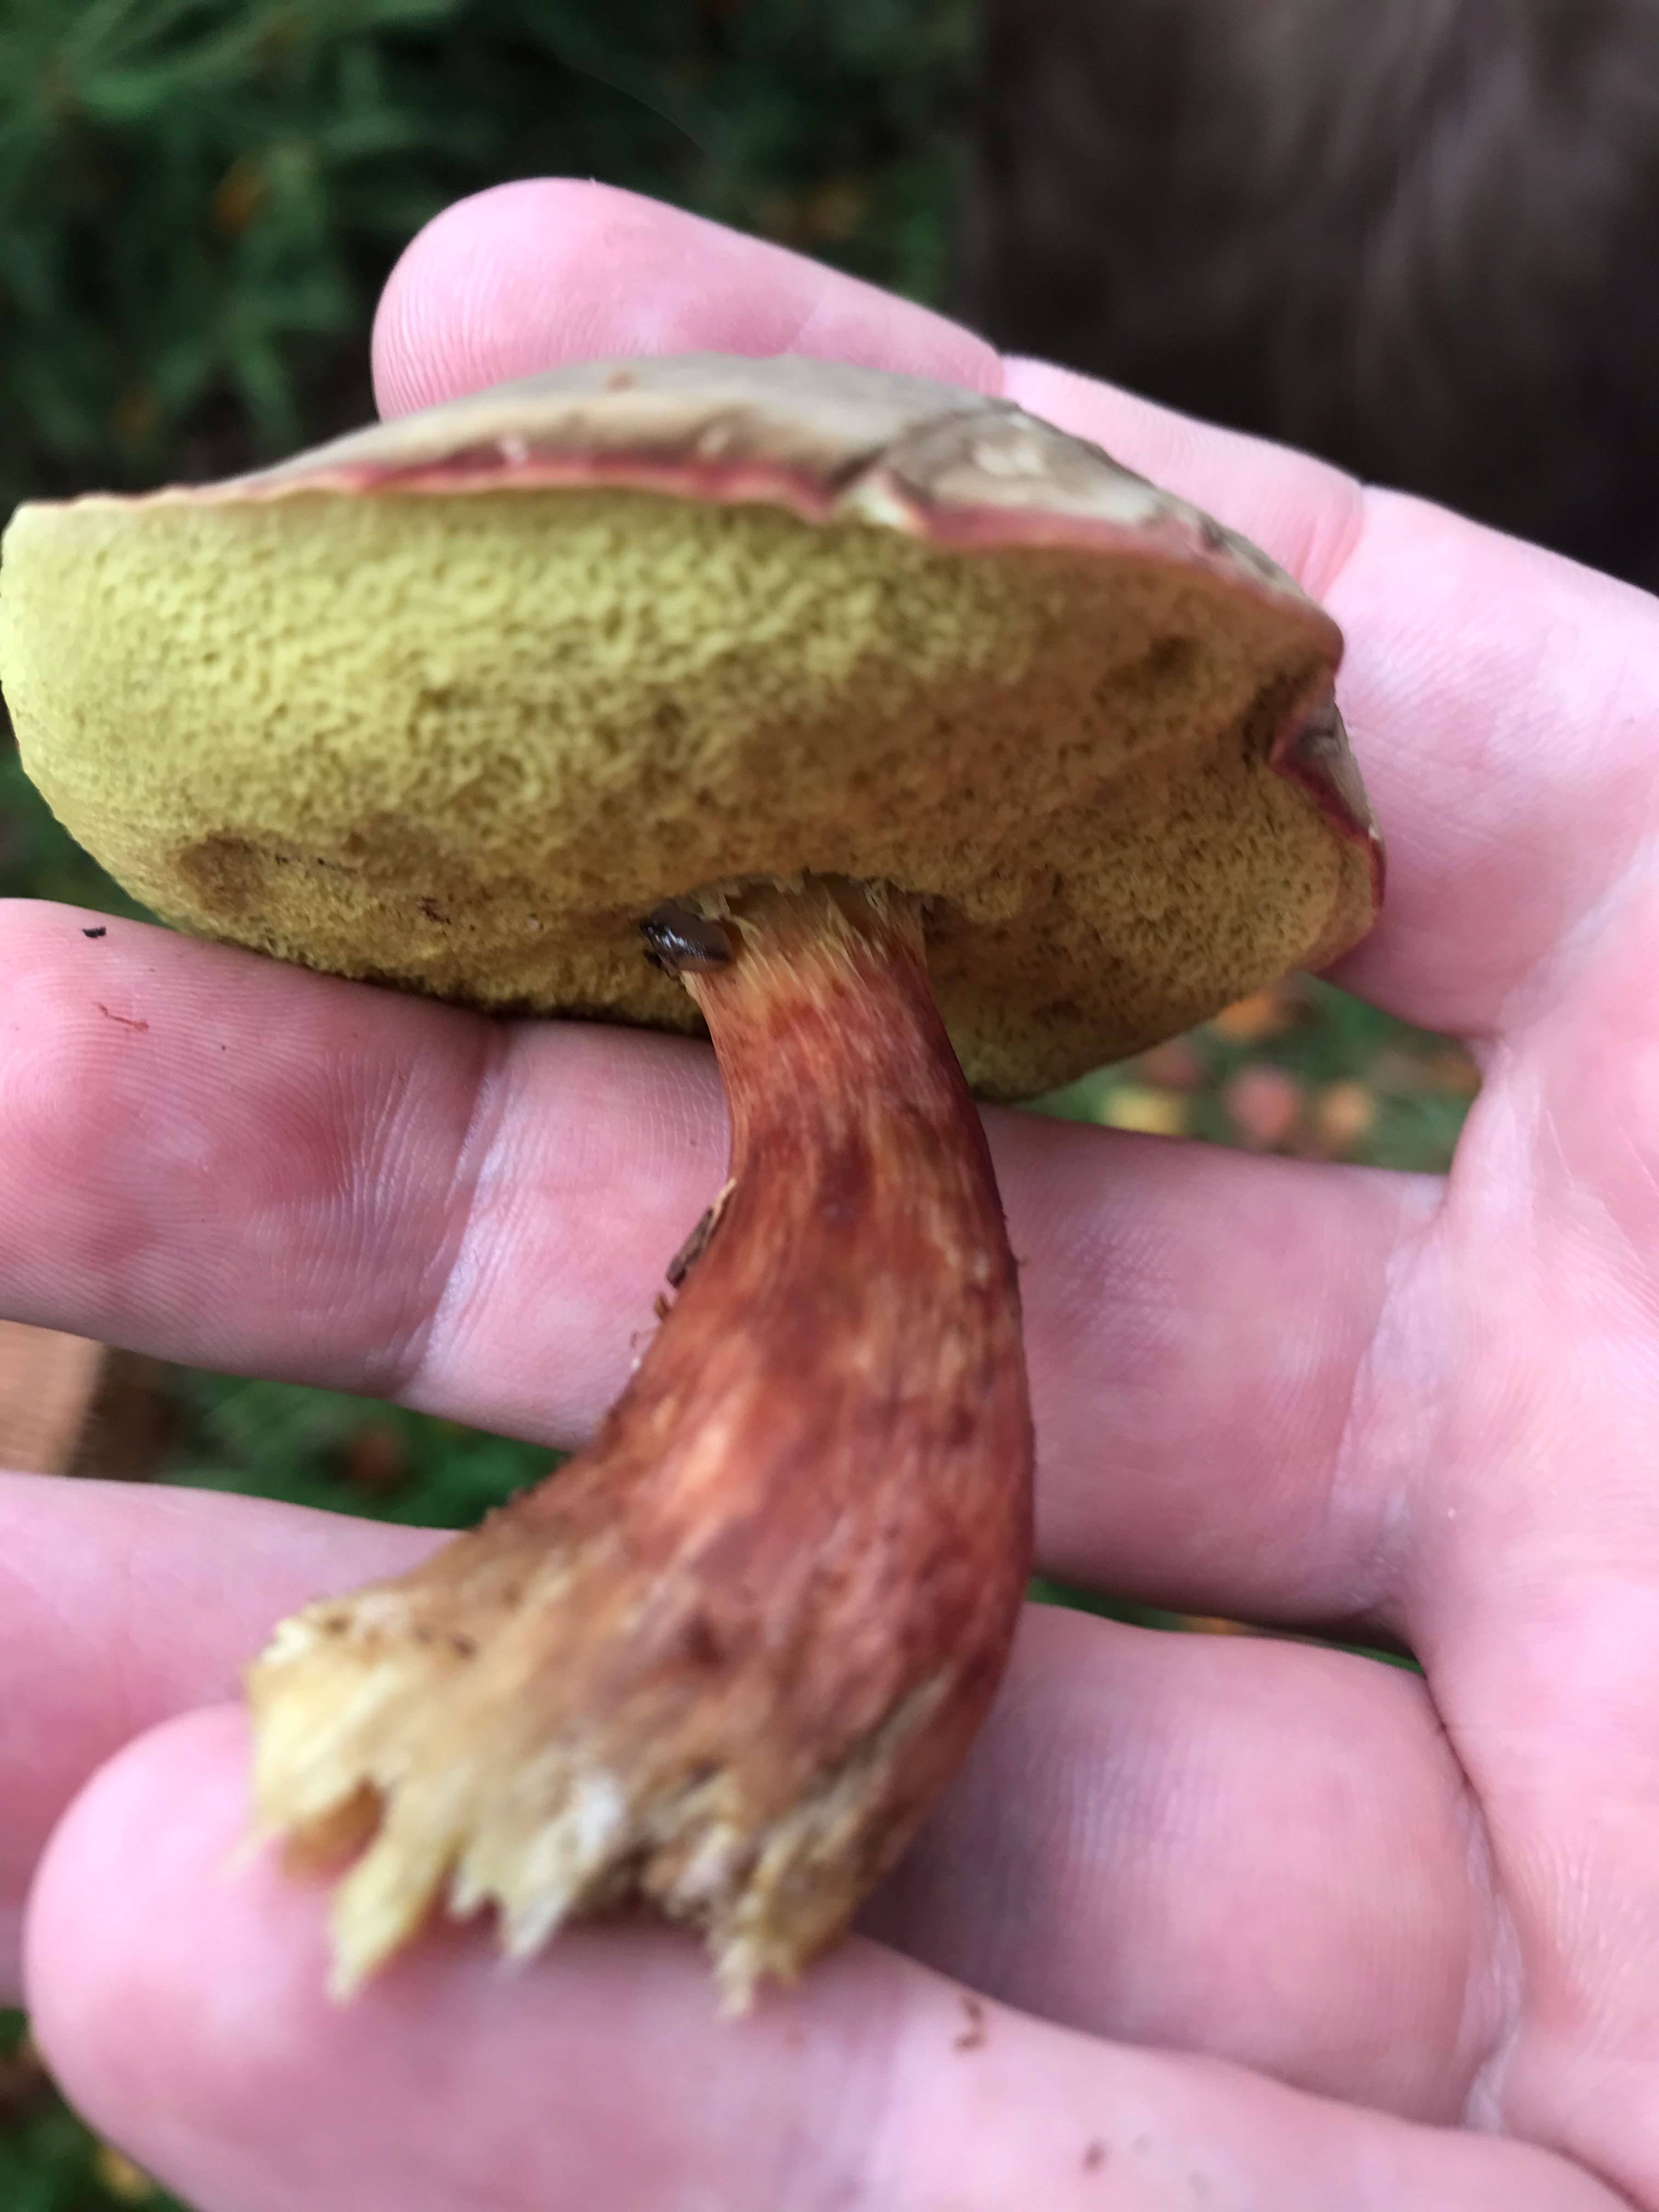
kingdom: Fungi
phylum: Basidiomycota
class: Agaricomycetes
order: Boletales
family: Boletaceae
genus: Xerocomellus
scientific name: Xerocomellus pruinatus
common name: dugget rørhat
